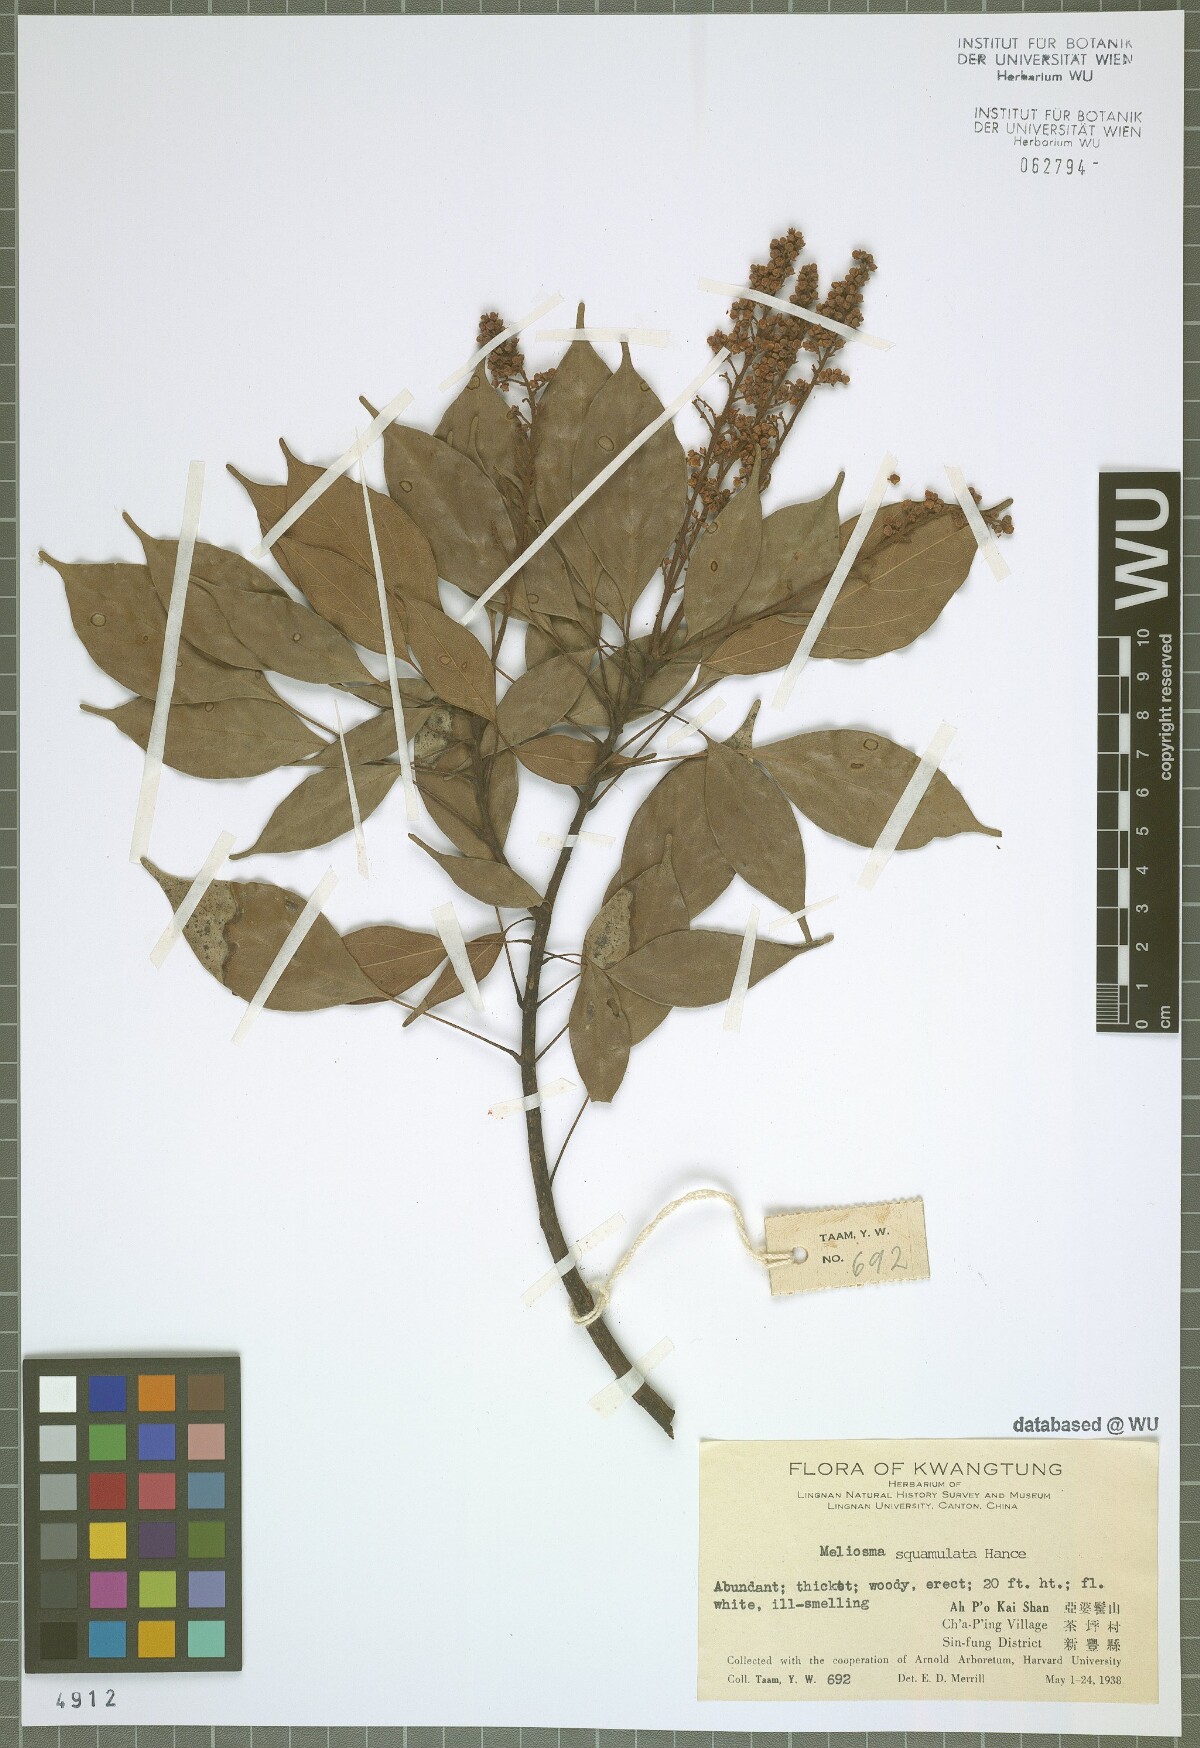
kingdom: Plantae
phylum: Tracheophyta
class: Magnoliopsida
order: Proteales
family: Sabiaceae
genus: Meliosma
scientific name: Meliosma squamulata
